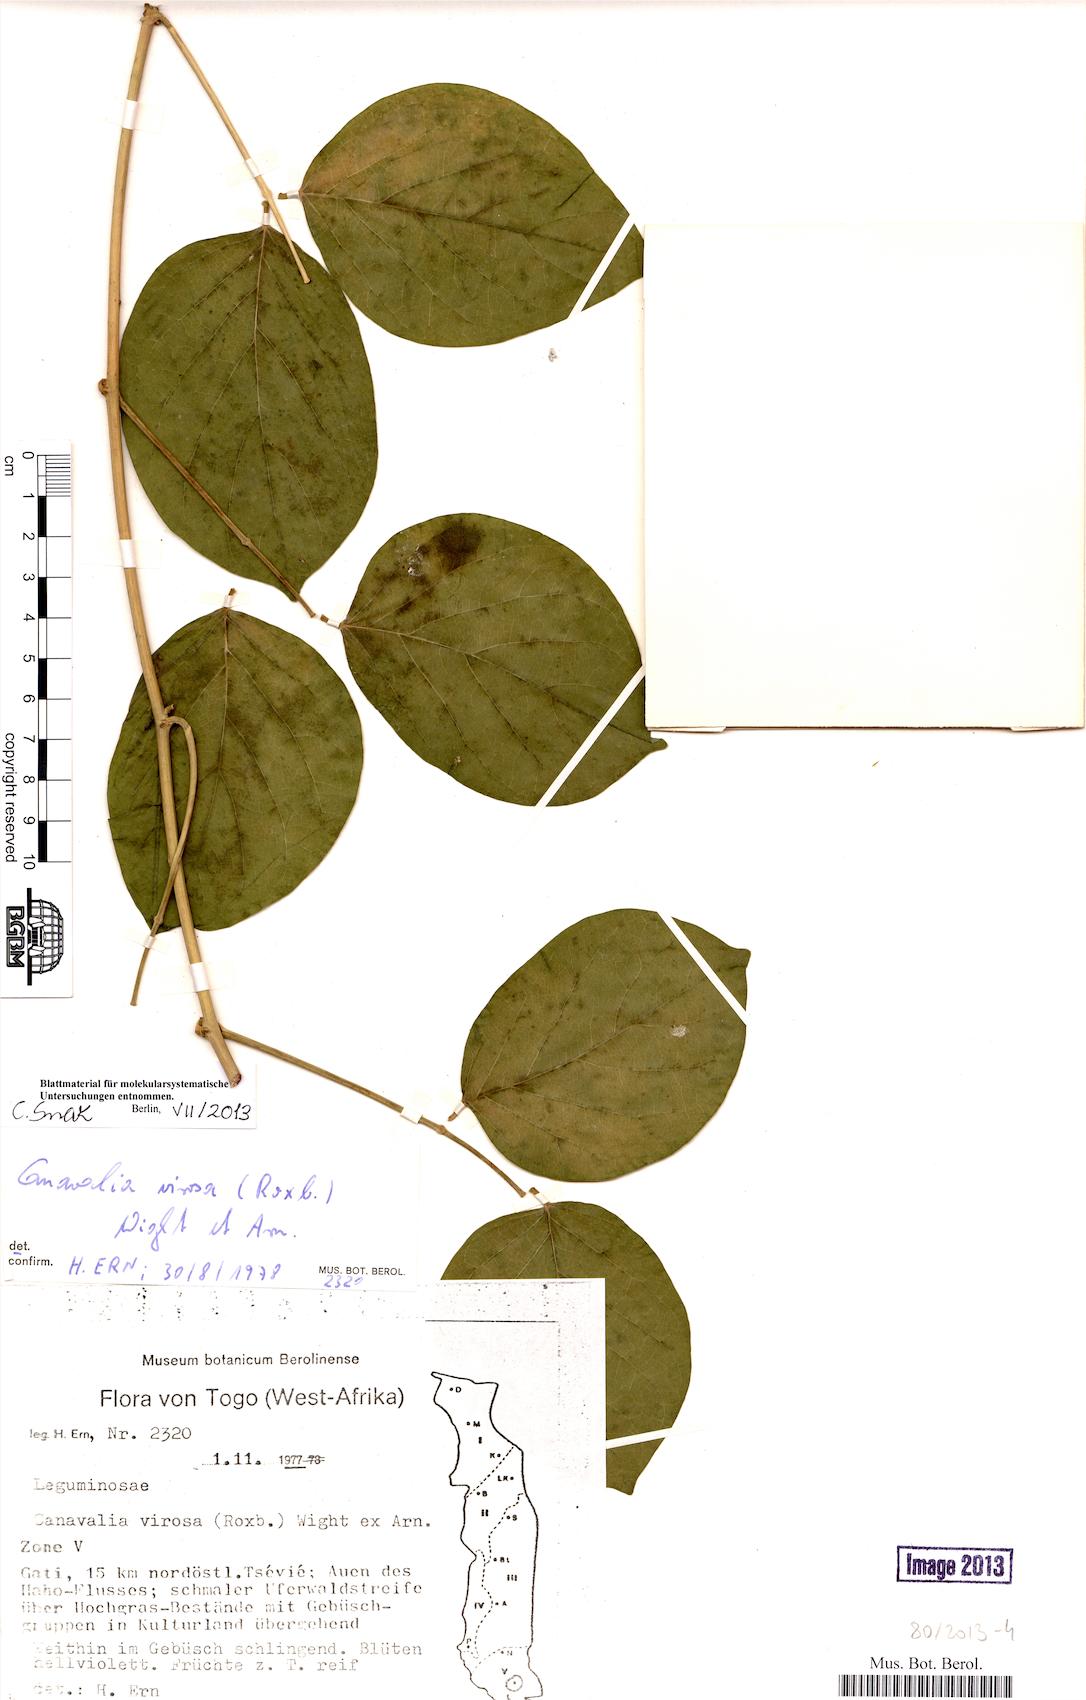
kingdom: Plantae
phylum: Tracheophyta
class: Magnoliopsida
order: Fabales
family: Fabaceae
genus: Canavalia
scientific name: Canavalia cathartica
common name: Maunaloa
